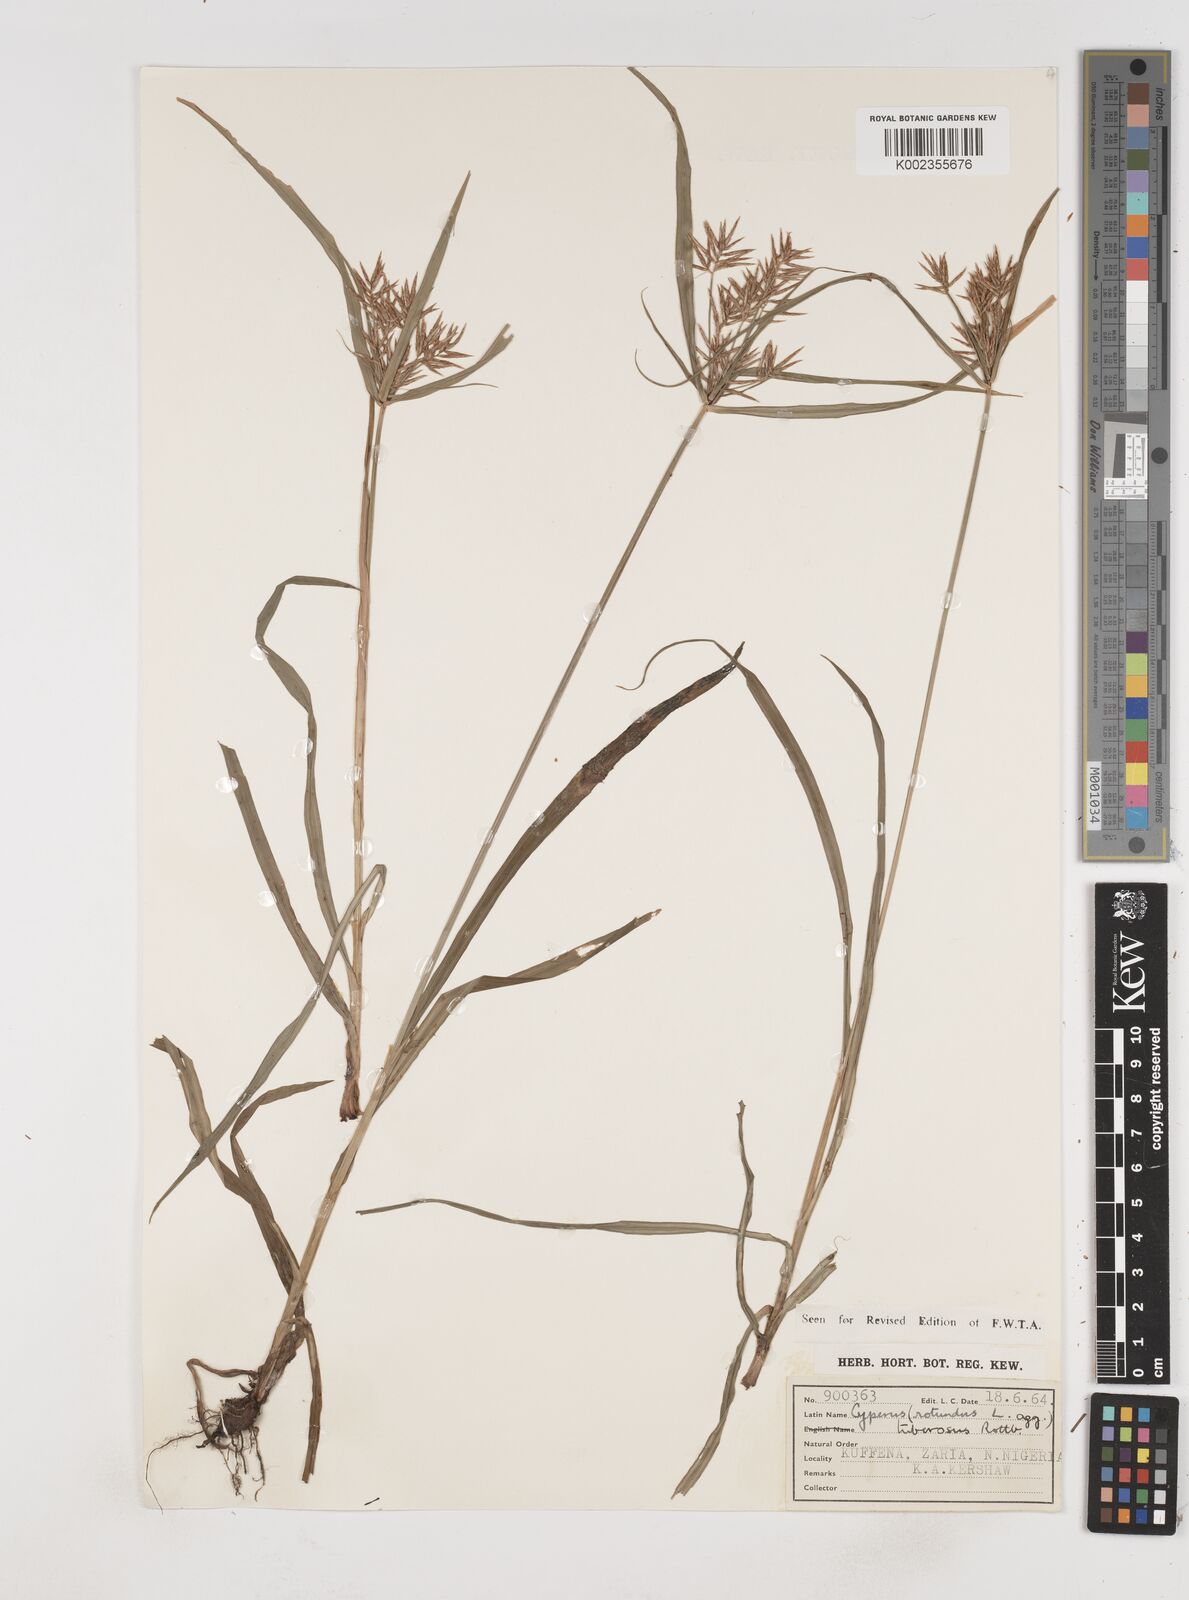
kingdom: Plantae
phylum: Tracheophyta
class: Liliopsida
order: Poales
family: Cyperaceae
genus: Cyperus
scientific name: Cyperus tuberosus
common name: Nut grass
